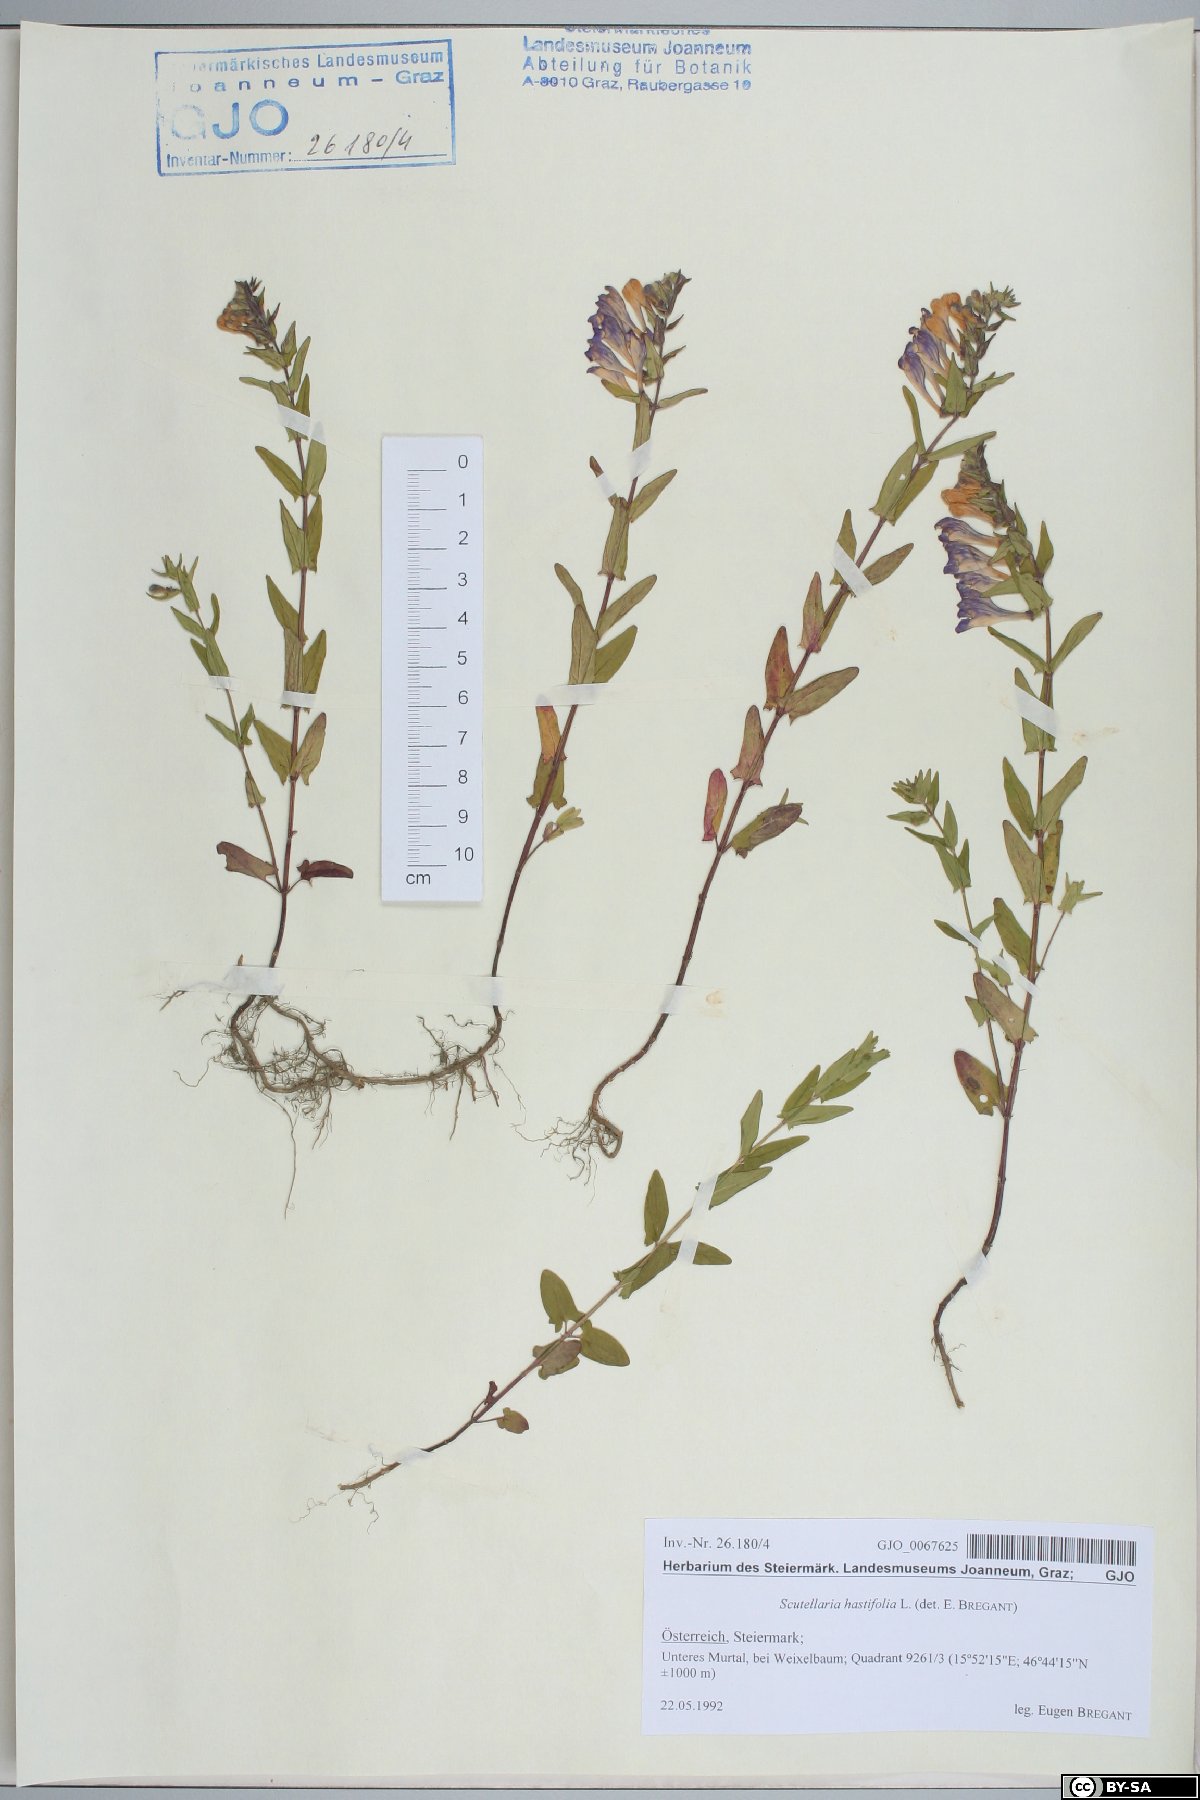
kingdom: Plantae
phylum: Tracheophyta
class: Magnoliopsida
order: Lamiales
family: Lamiaceae
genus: Scutellaria
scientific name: Scutellaria hastifolia
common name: Norfolk skullcap
